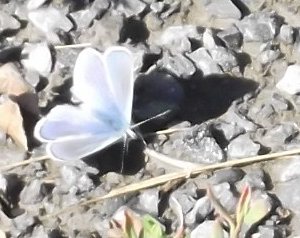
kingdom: Animalia
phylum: Arthropoda
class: Insecta
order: Lepidoptera
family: Lycaenidae
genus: Cyaniris
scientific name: Cyaniris neglecta
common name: Summer Azure
